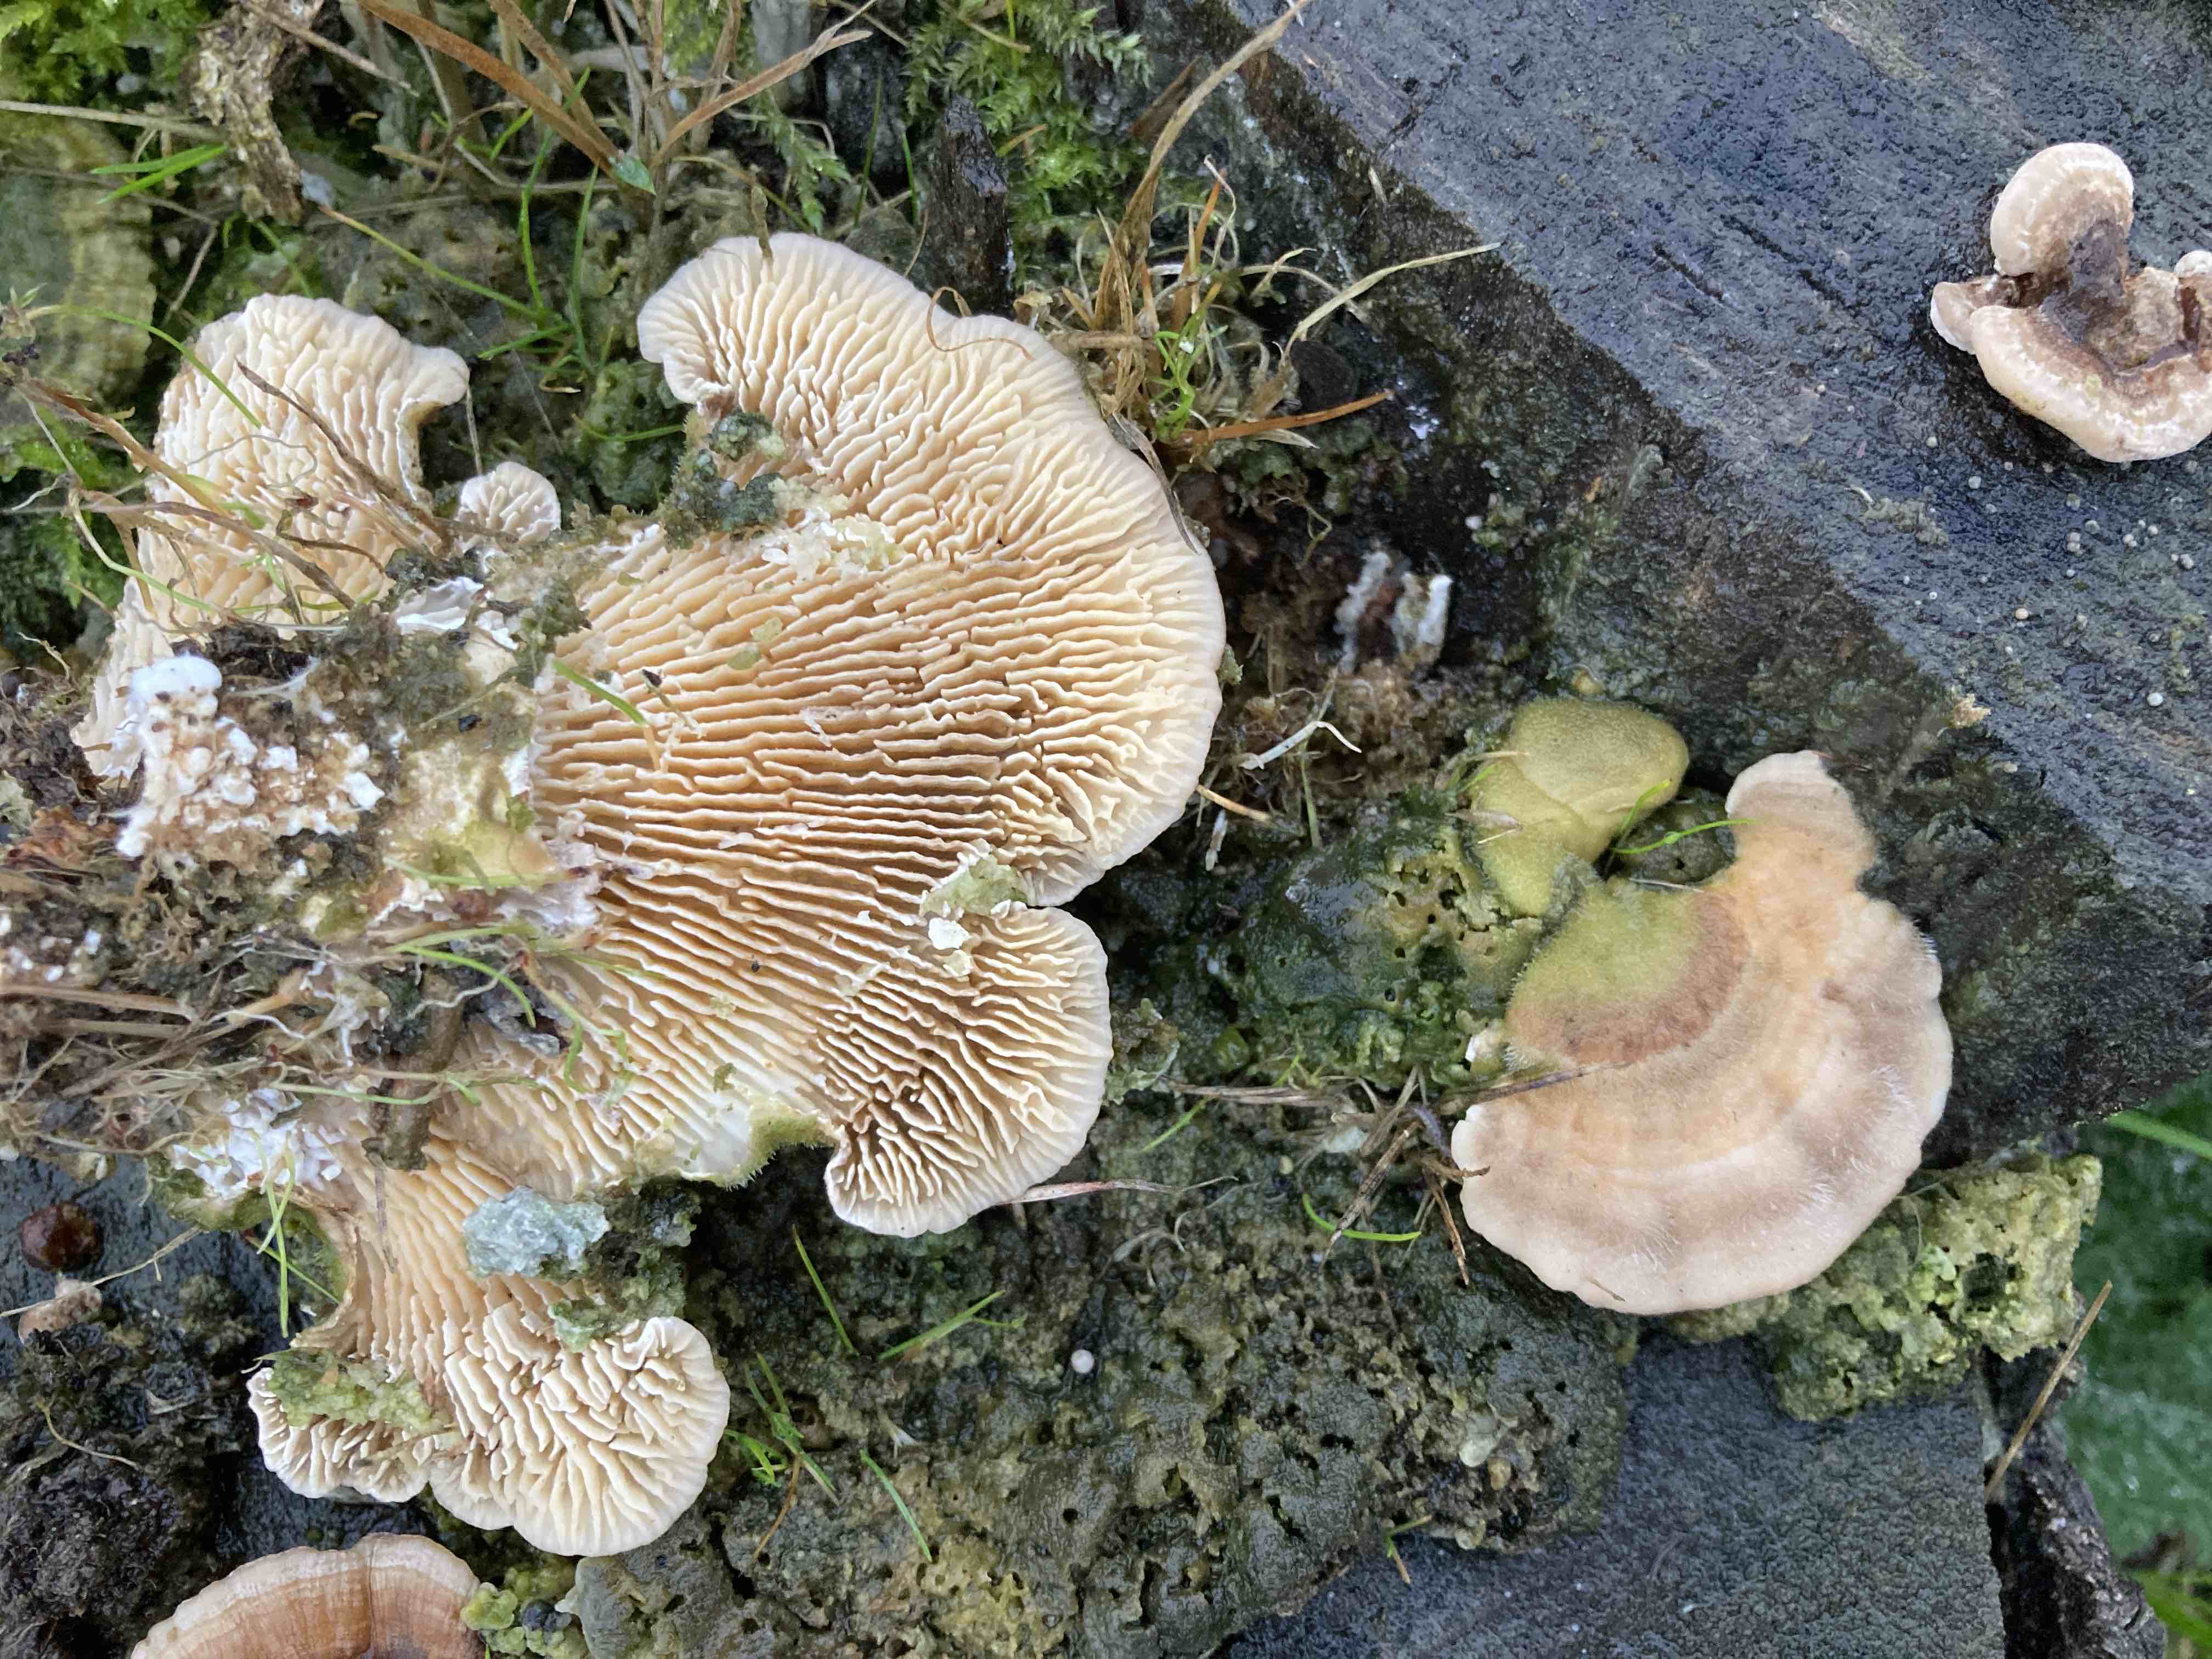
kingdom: Fungi
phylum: Basidiomycota
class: Agaricomycetes
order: Polyporales
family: Polyporaceae
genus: Lenzites
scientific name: Lenzites betulinus
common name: birke-læderporesvamp
